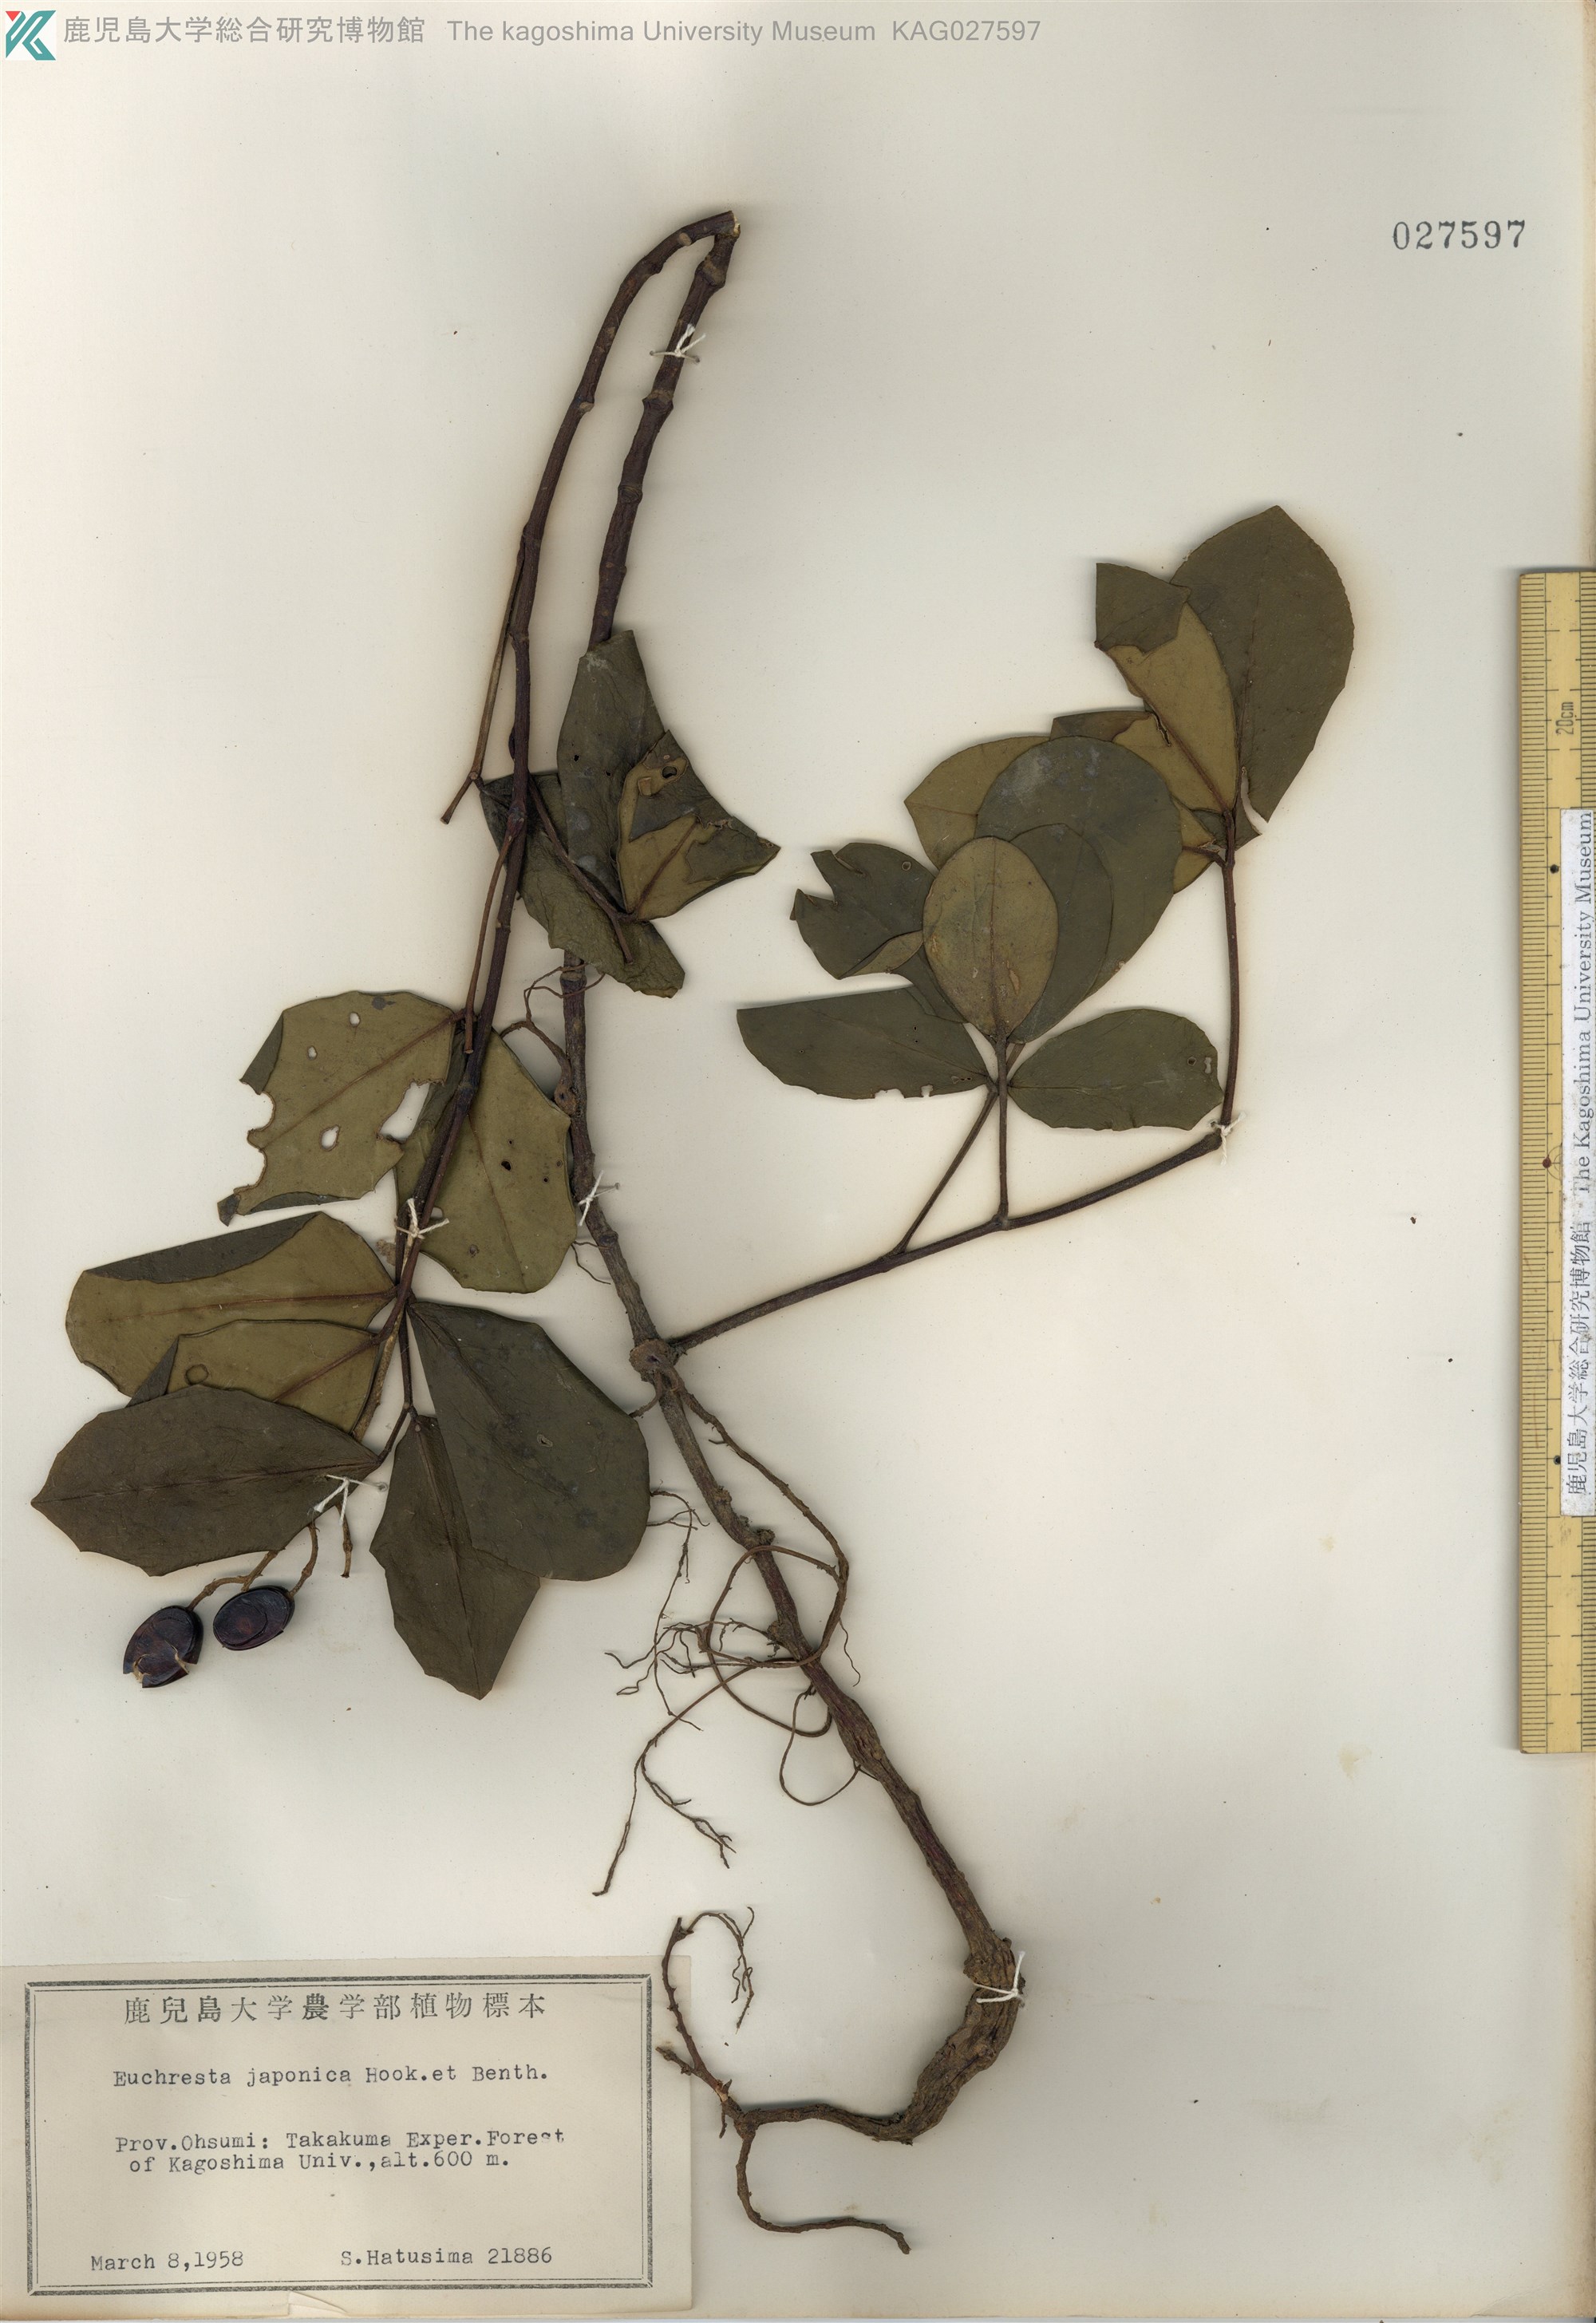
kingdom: Plantae
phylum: Tracheophyta
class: Magnoliopsida
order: Fabales
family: Fabaceae
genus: Euchresta
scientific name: Euchresta japonica
